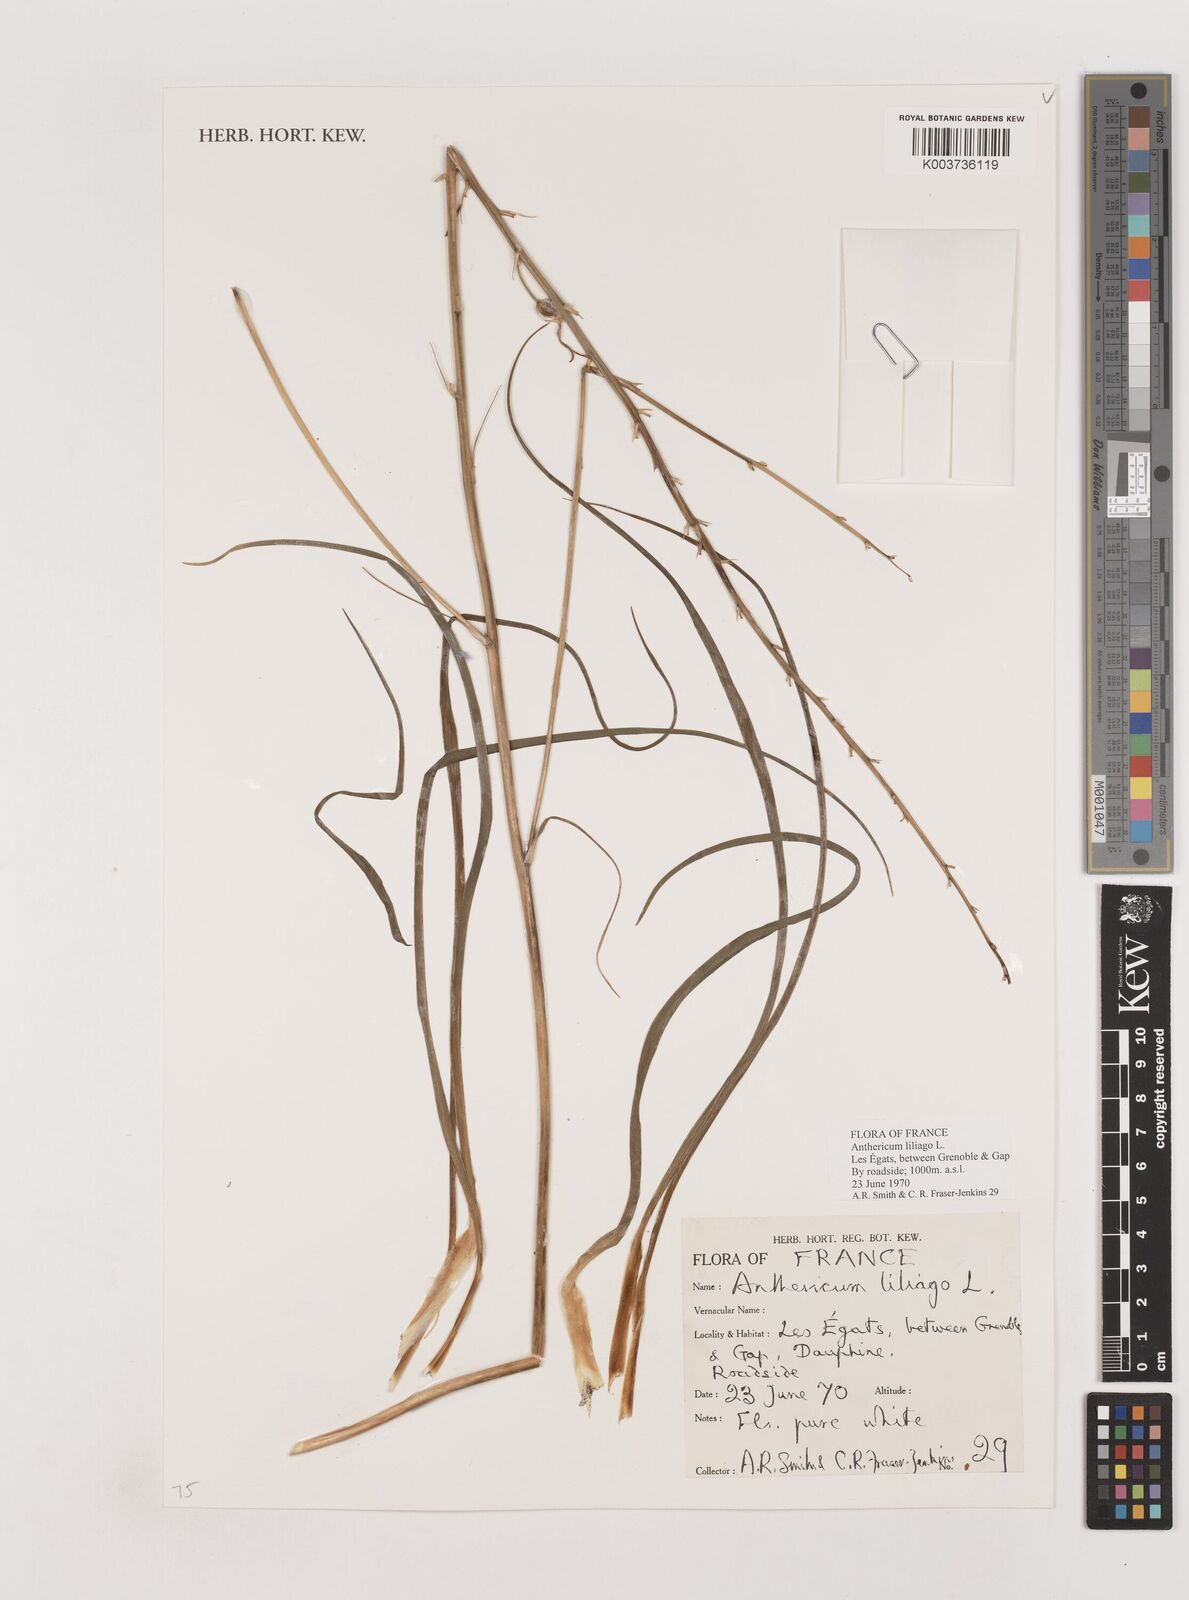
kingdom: Plantae
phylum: Tracheophyta
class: Liliopsida
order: Asparagales
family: Asparagaceae
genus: Anthericum
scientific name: Anthericum liliago
